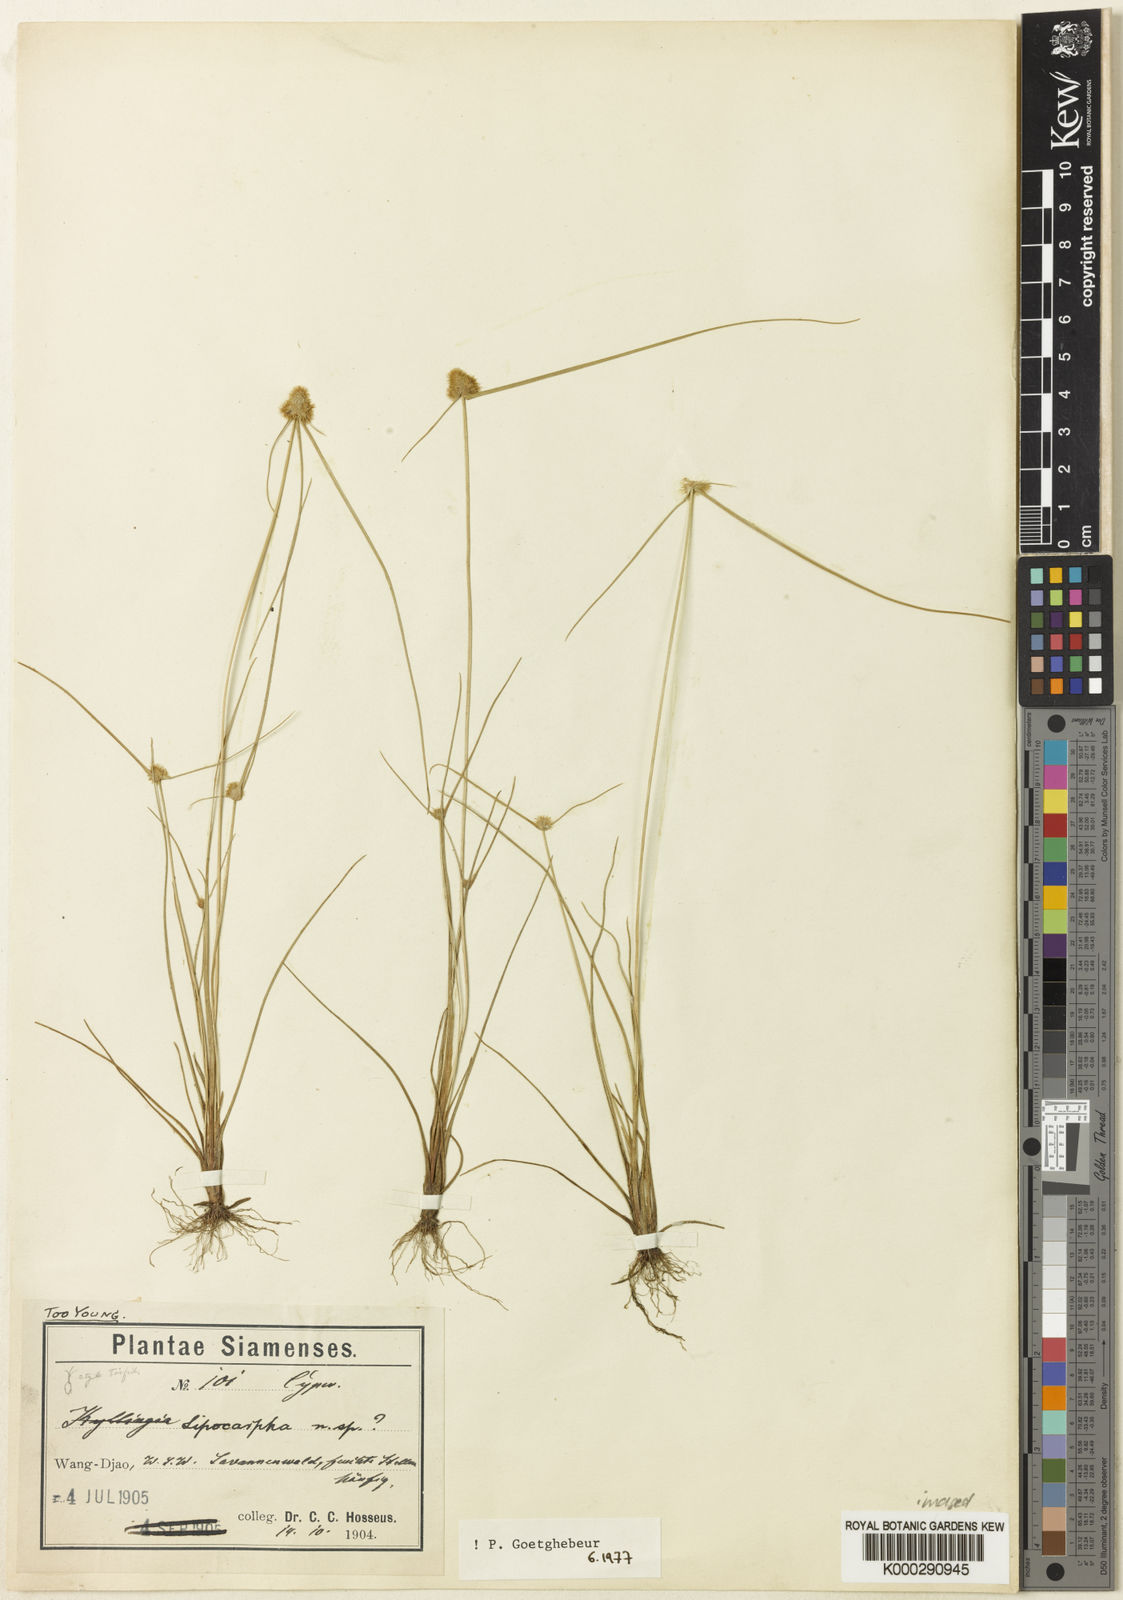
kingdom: Plantae
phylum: Tracheophyta
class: Liliopsida
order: Poales
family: Cyperaceae
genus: Cyperus
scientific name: Cyperus dipsacoides
